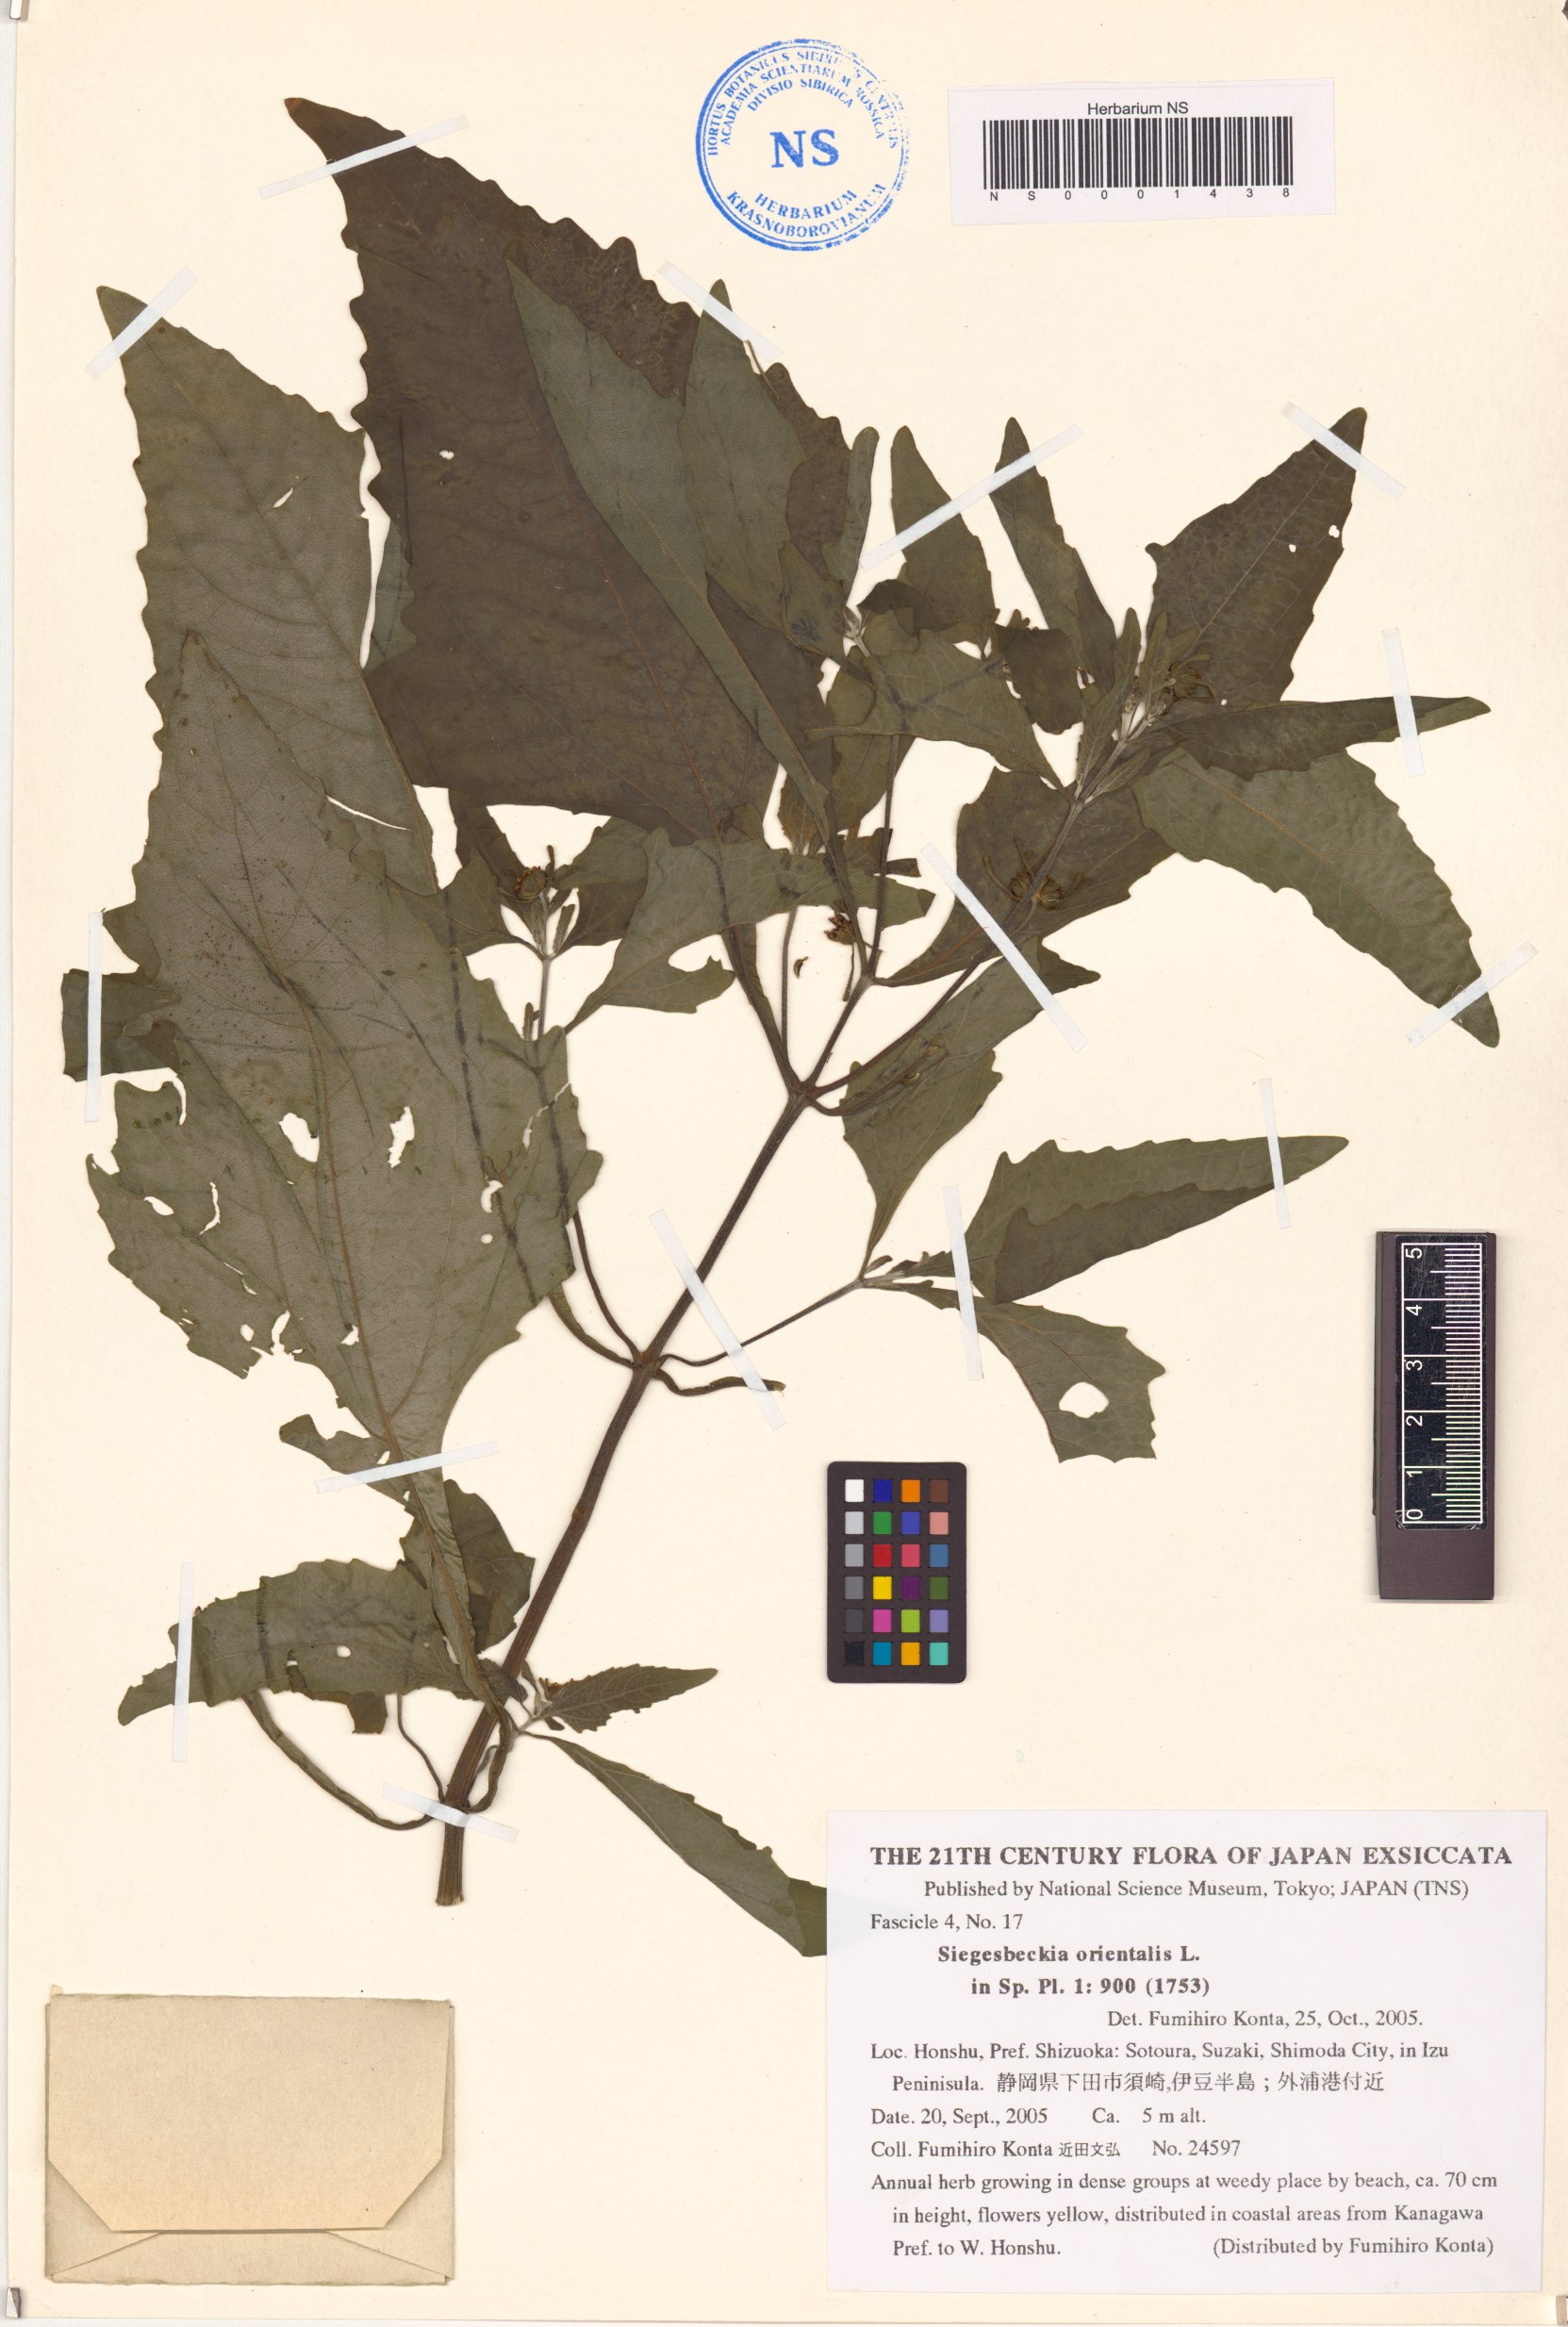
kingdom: Plantae
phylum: Tracheophyta
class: Magnoliopsida
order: Asterales
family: Asteraceae
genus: Sigesbeckia
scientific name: Sigesbeckia orientalis
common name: Eastern st paul's-wort
